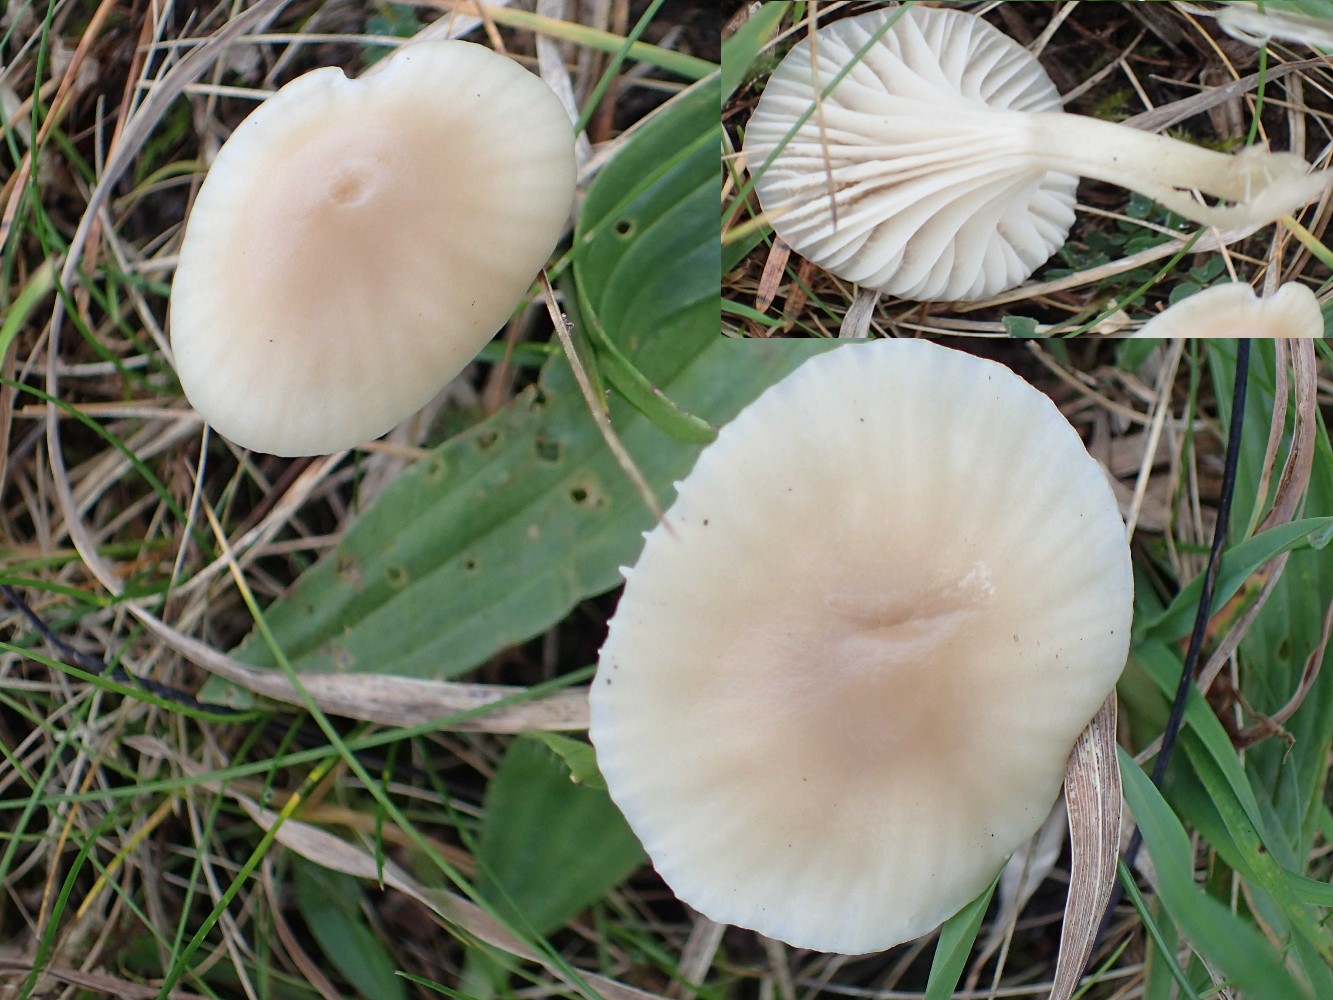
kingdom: Fungi
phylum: Basidiomycota
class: Agaricomycetes
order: Agaricales
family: Hygrophoraceae
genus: Cuphophyllus
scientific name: Cuphophyllus
